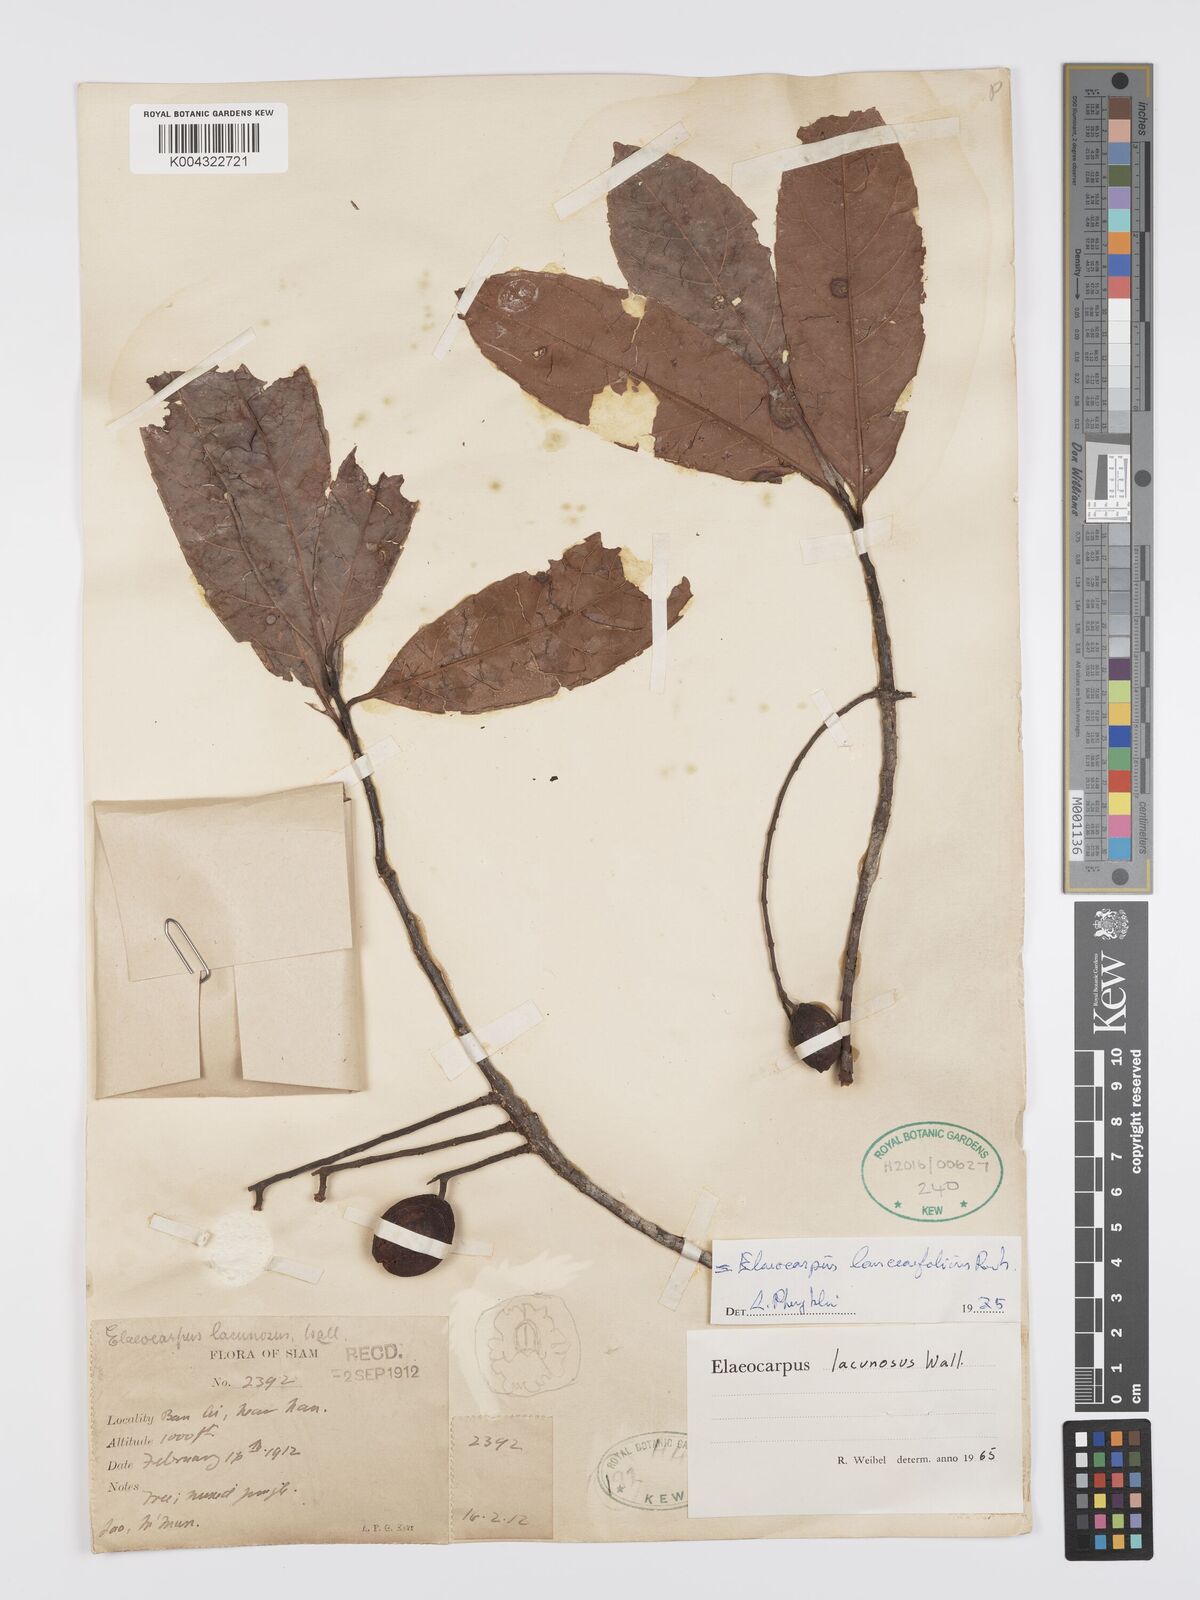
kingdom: Plantae
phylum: Tracheophyta
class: Magnoliopsida
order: Oxalidales
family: Elaeocarpaceae
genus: Elaeocarpus
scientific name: Elaeocarpus lanceifolius
